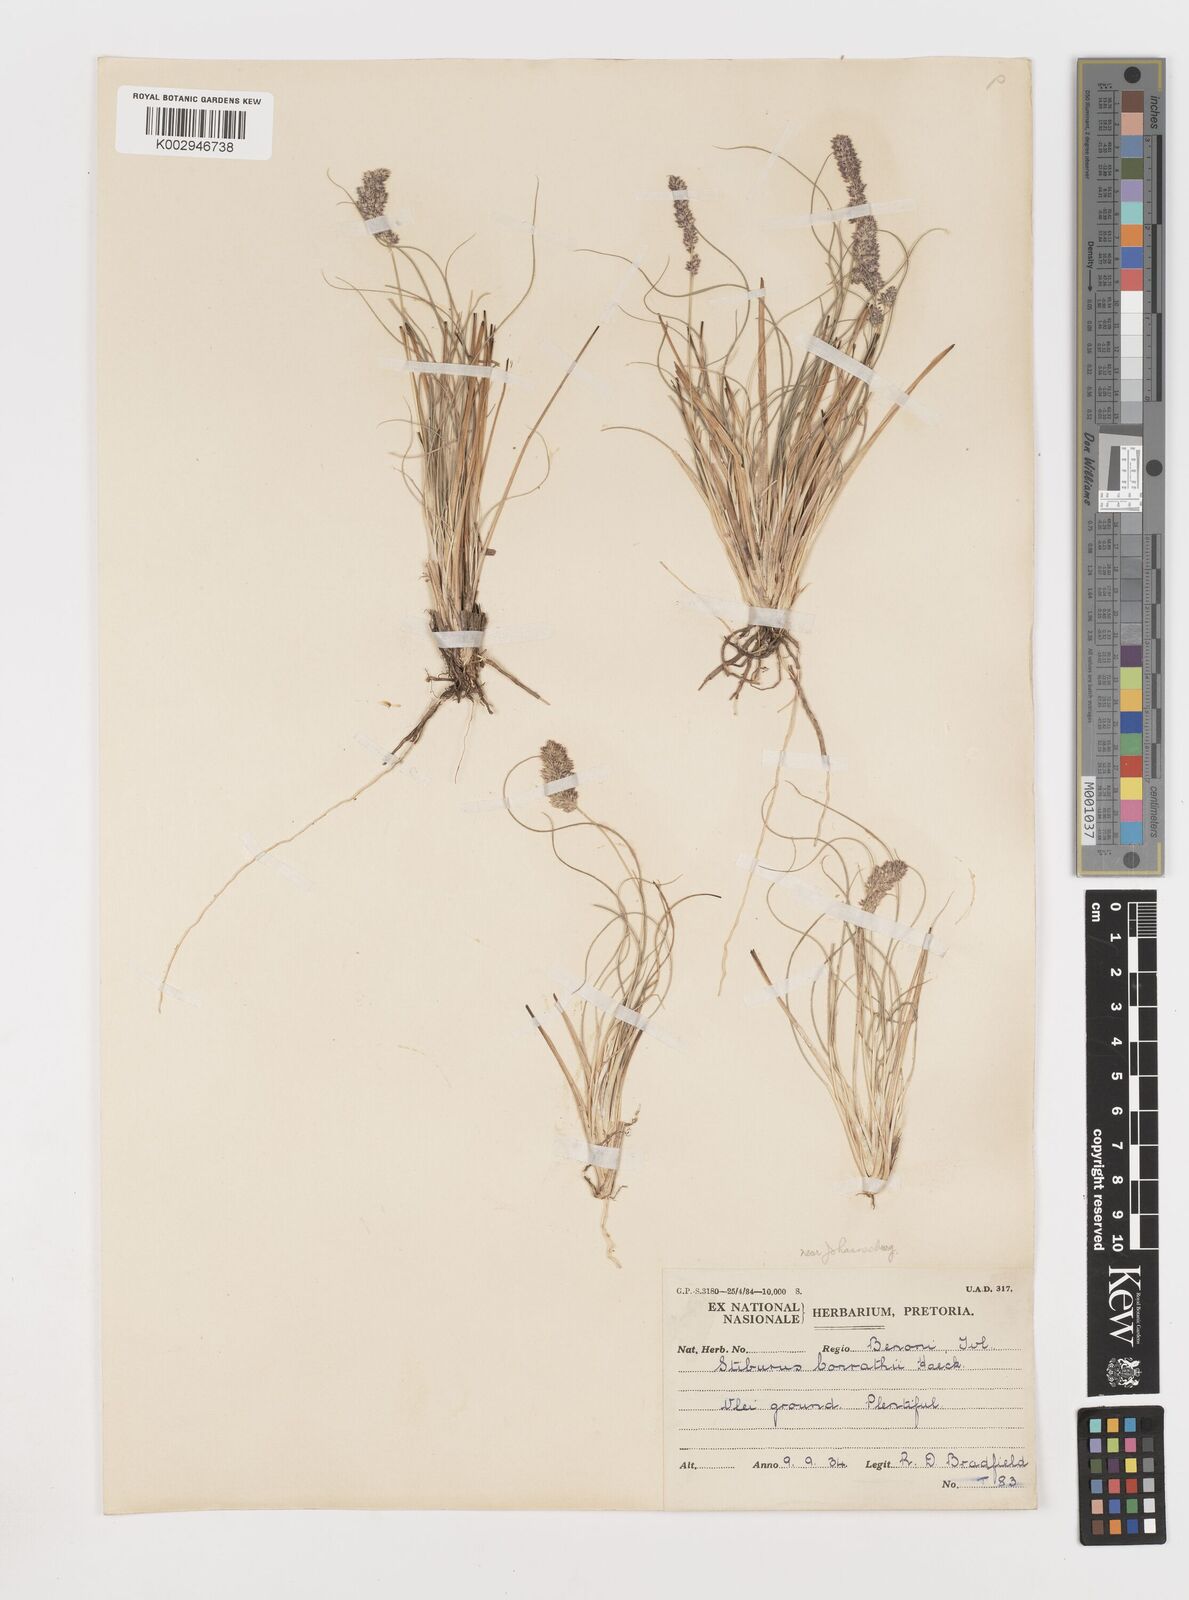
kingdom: Plantae
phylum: Tracheophyta
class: Liliopsida
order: Poales
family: Poaceae
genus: Stiburus
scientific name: Stiburus conrathii
